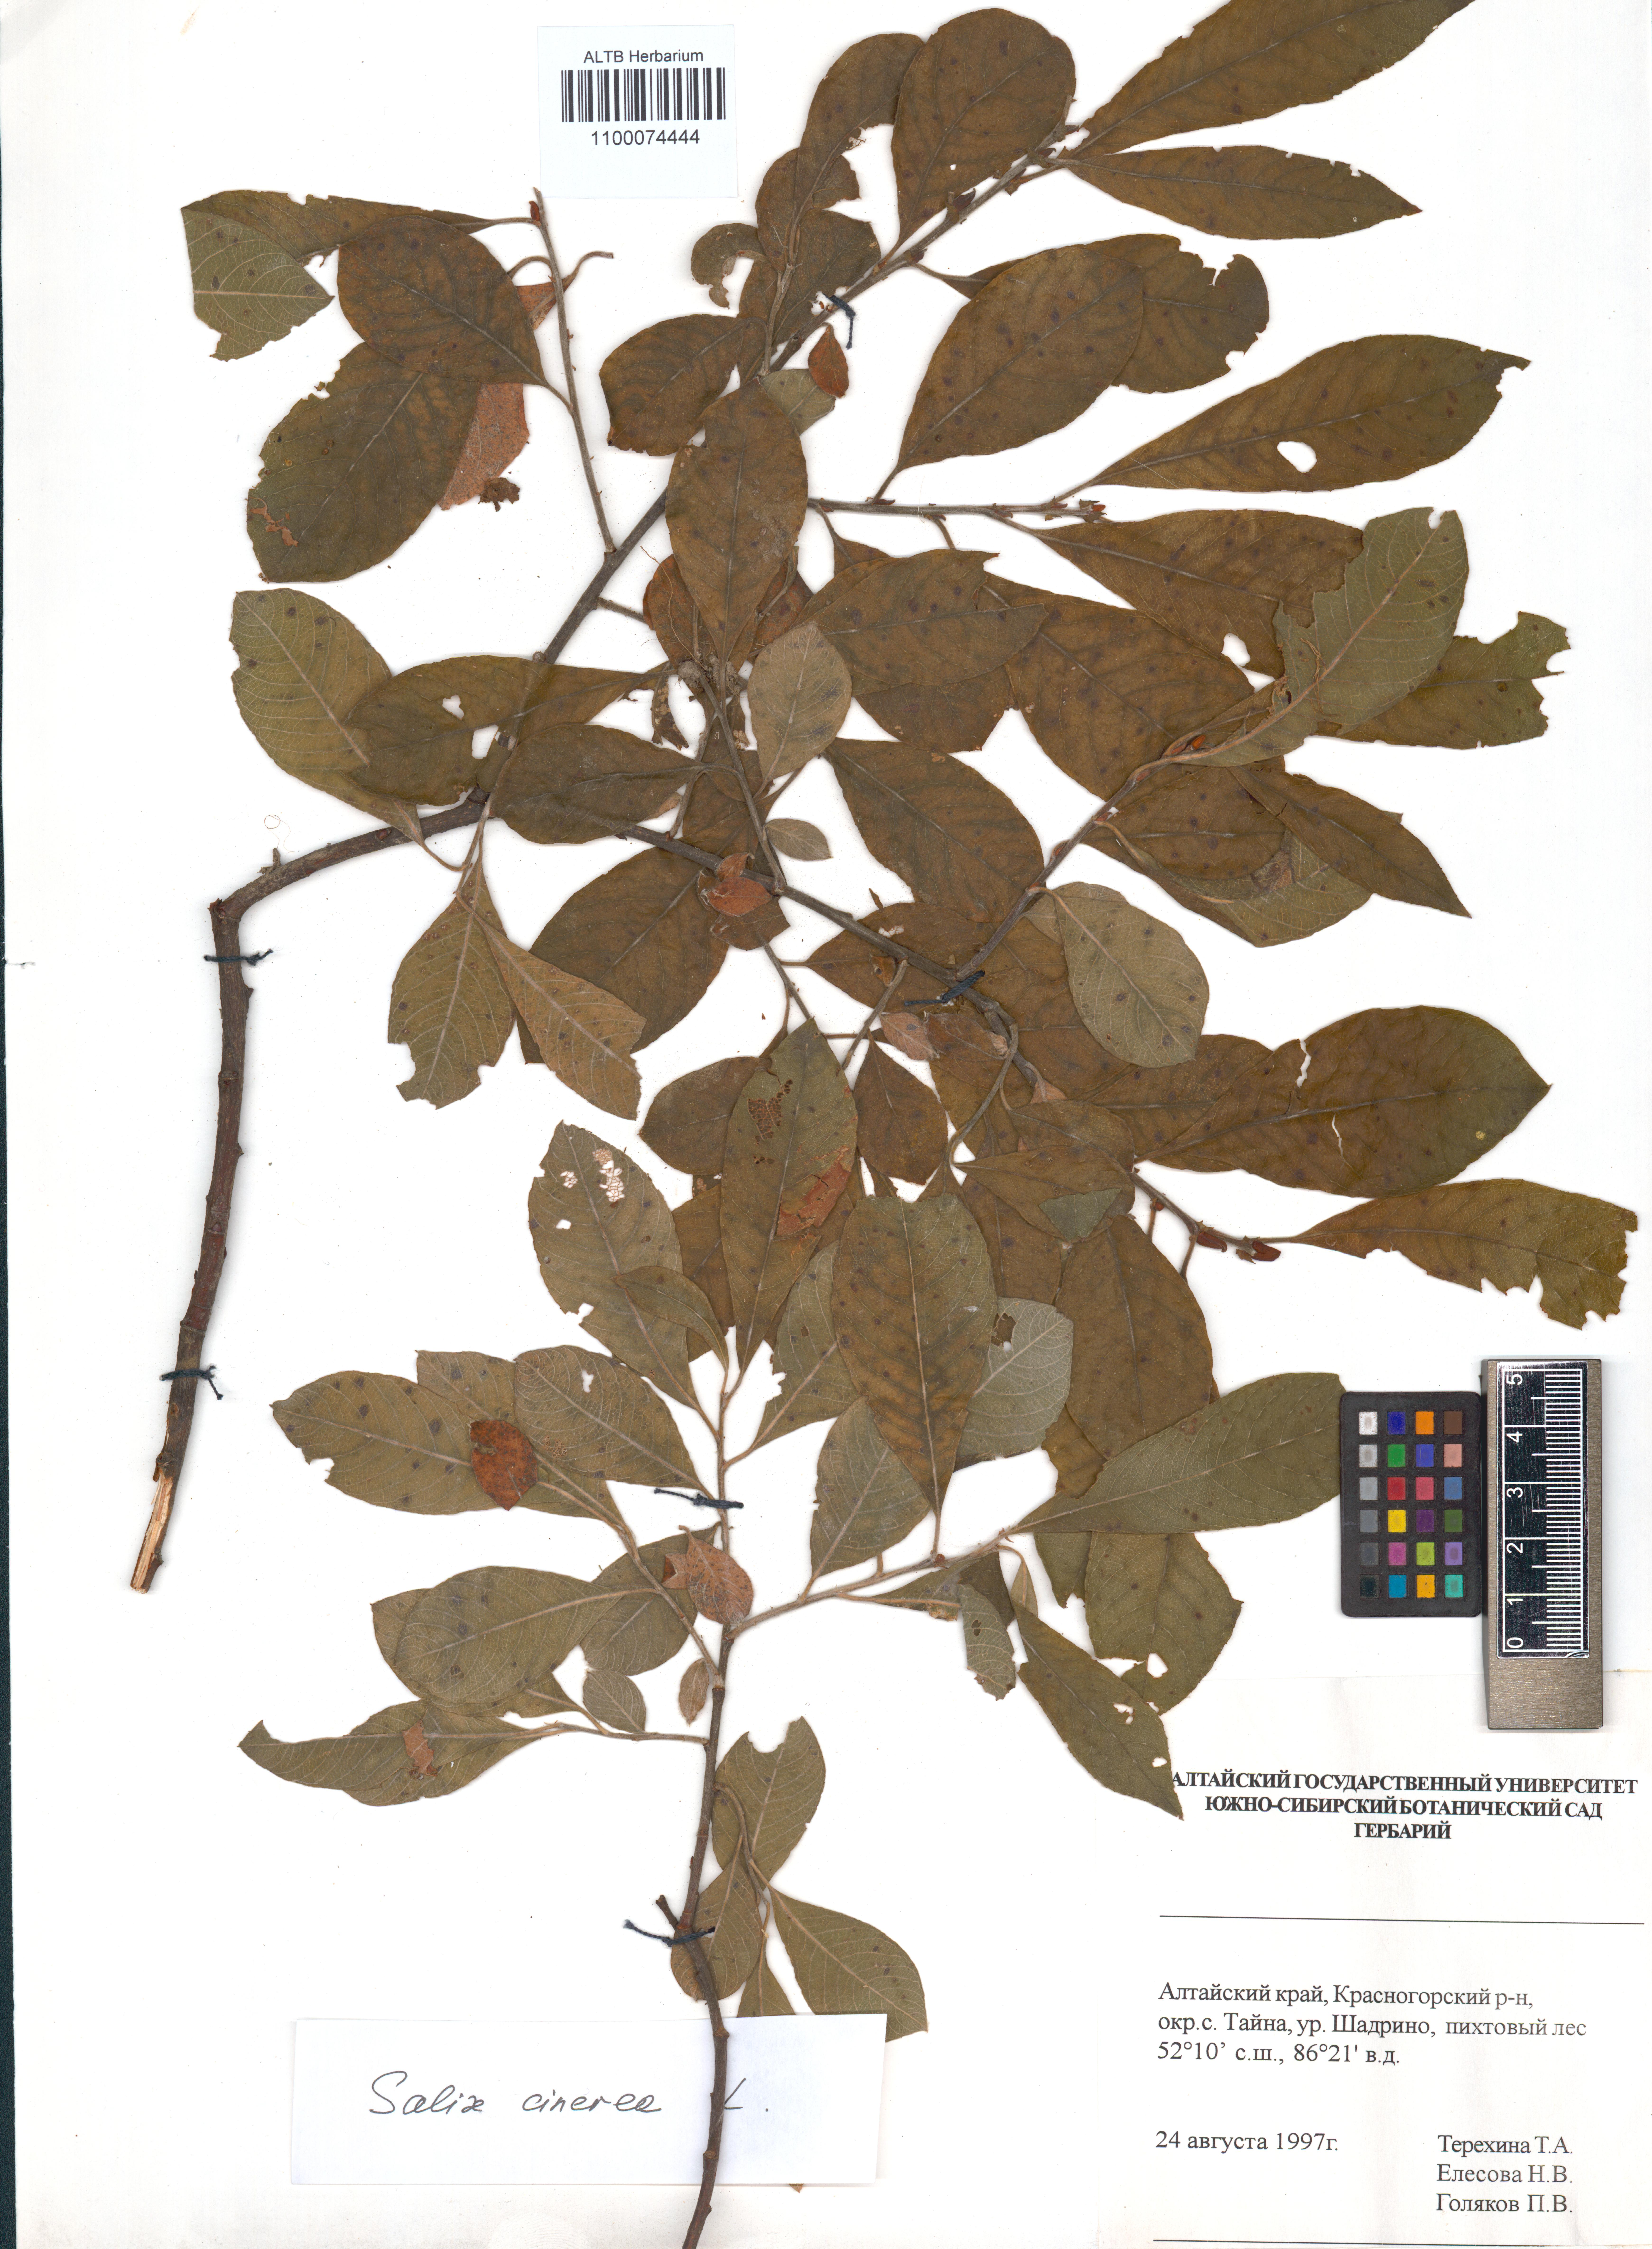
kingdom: Plantae
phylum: Tracheophyta
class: Magnoliopsida
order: Malpighiales
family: Salicaceae
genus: Salix
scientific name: Salix cinerea
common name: Common sallow
